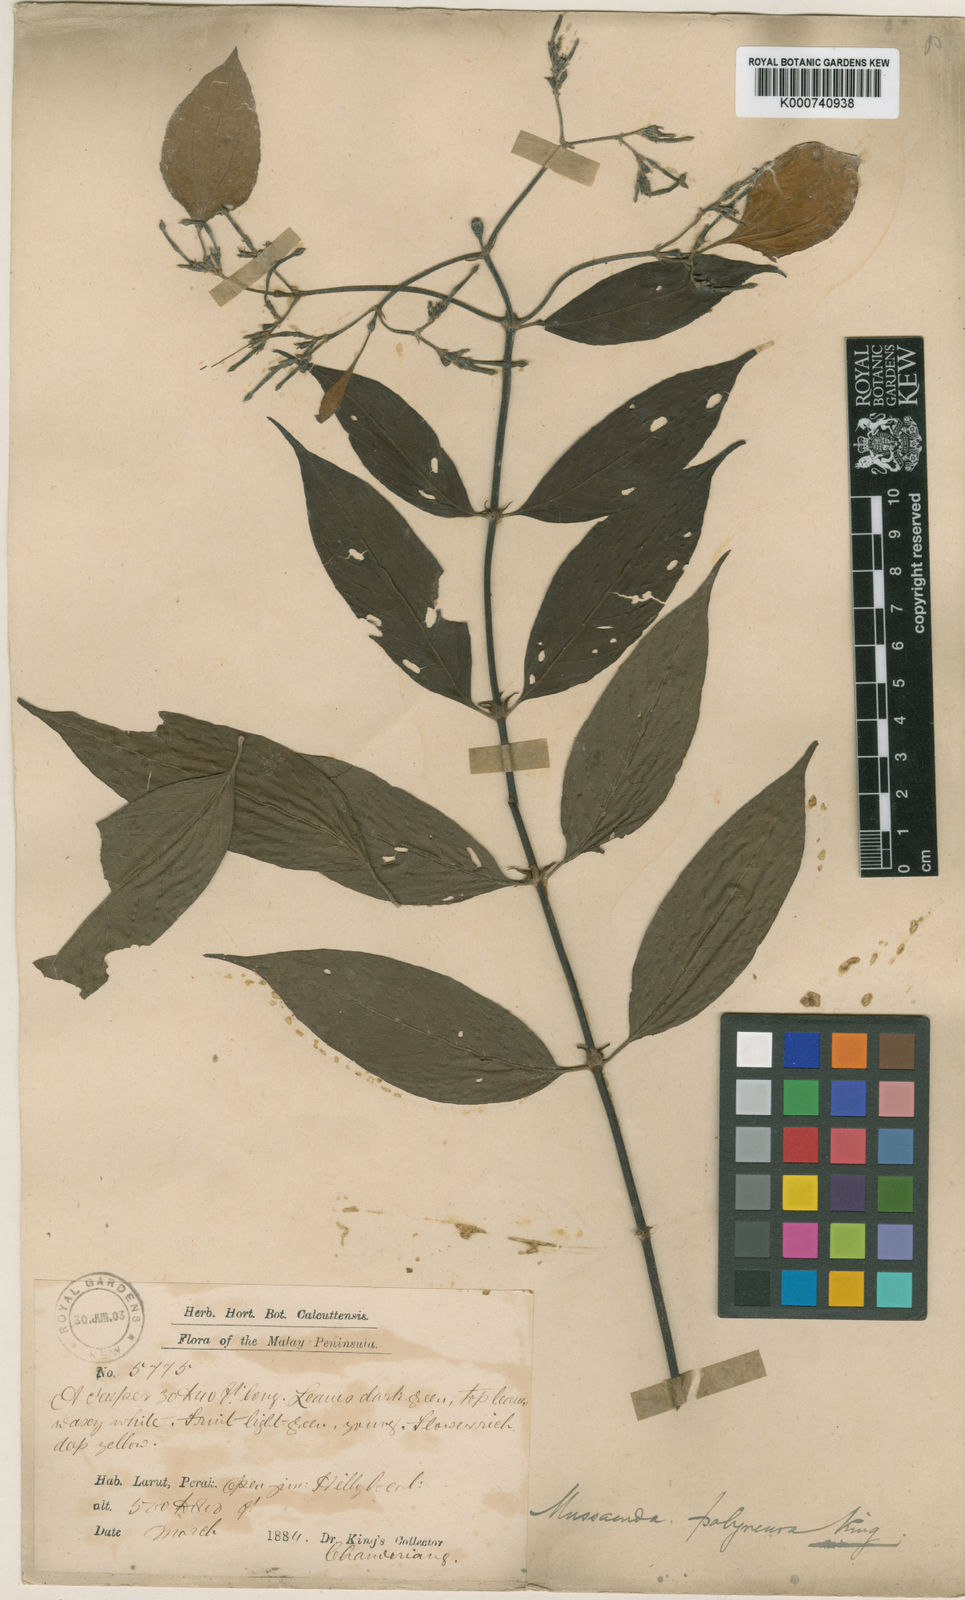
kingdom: Plantae
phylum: Tracheophyta
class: Magnoliopsida
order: Gentianales
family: Rubiaceae
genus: Mussaenda
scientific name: Mussaenda polyneura
